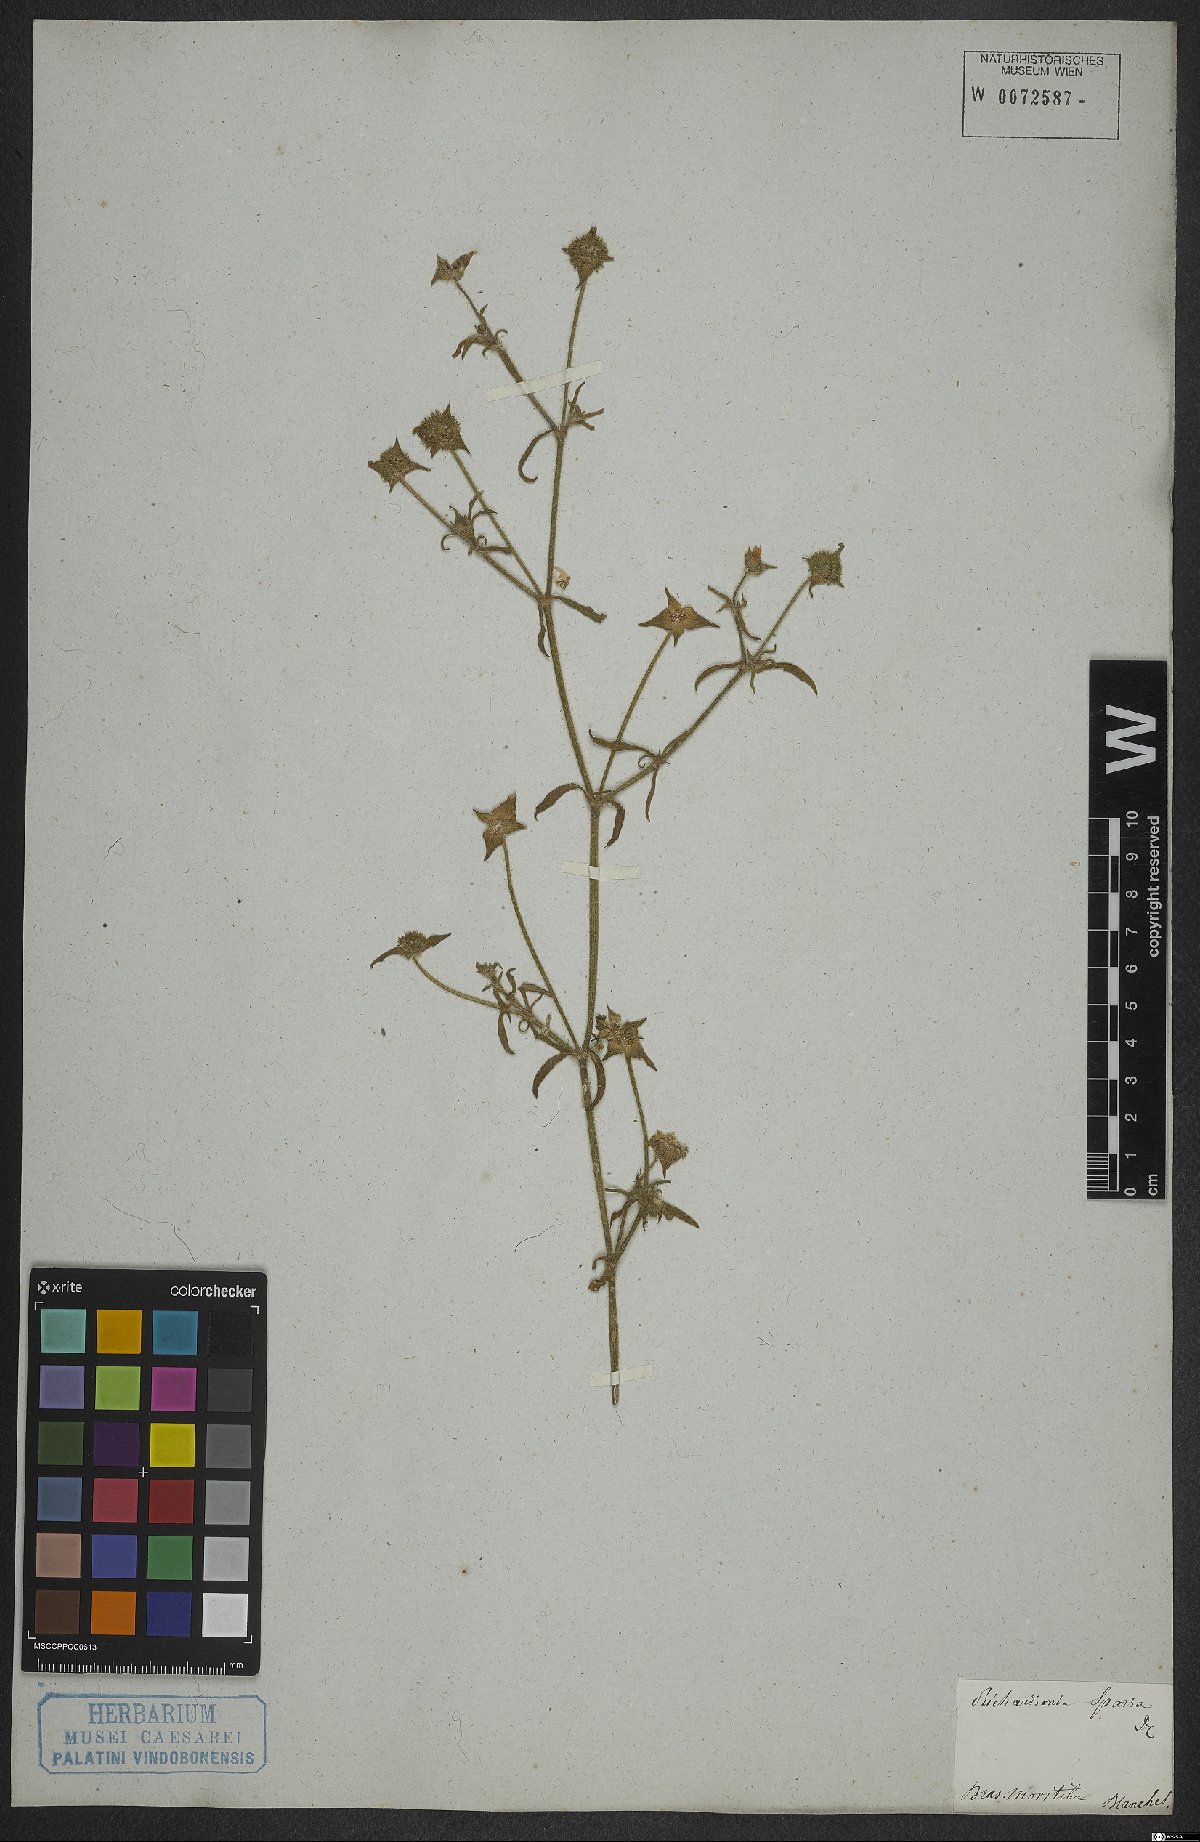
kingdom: Plantae
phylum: Tracheophyta
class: Magnoliopsida
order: Gentianales
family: Rubiaceae
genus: Richardia
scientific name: Richardia grandiflora
